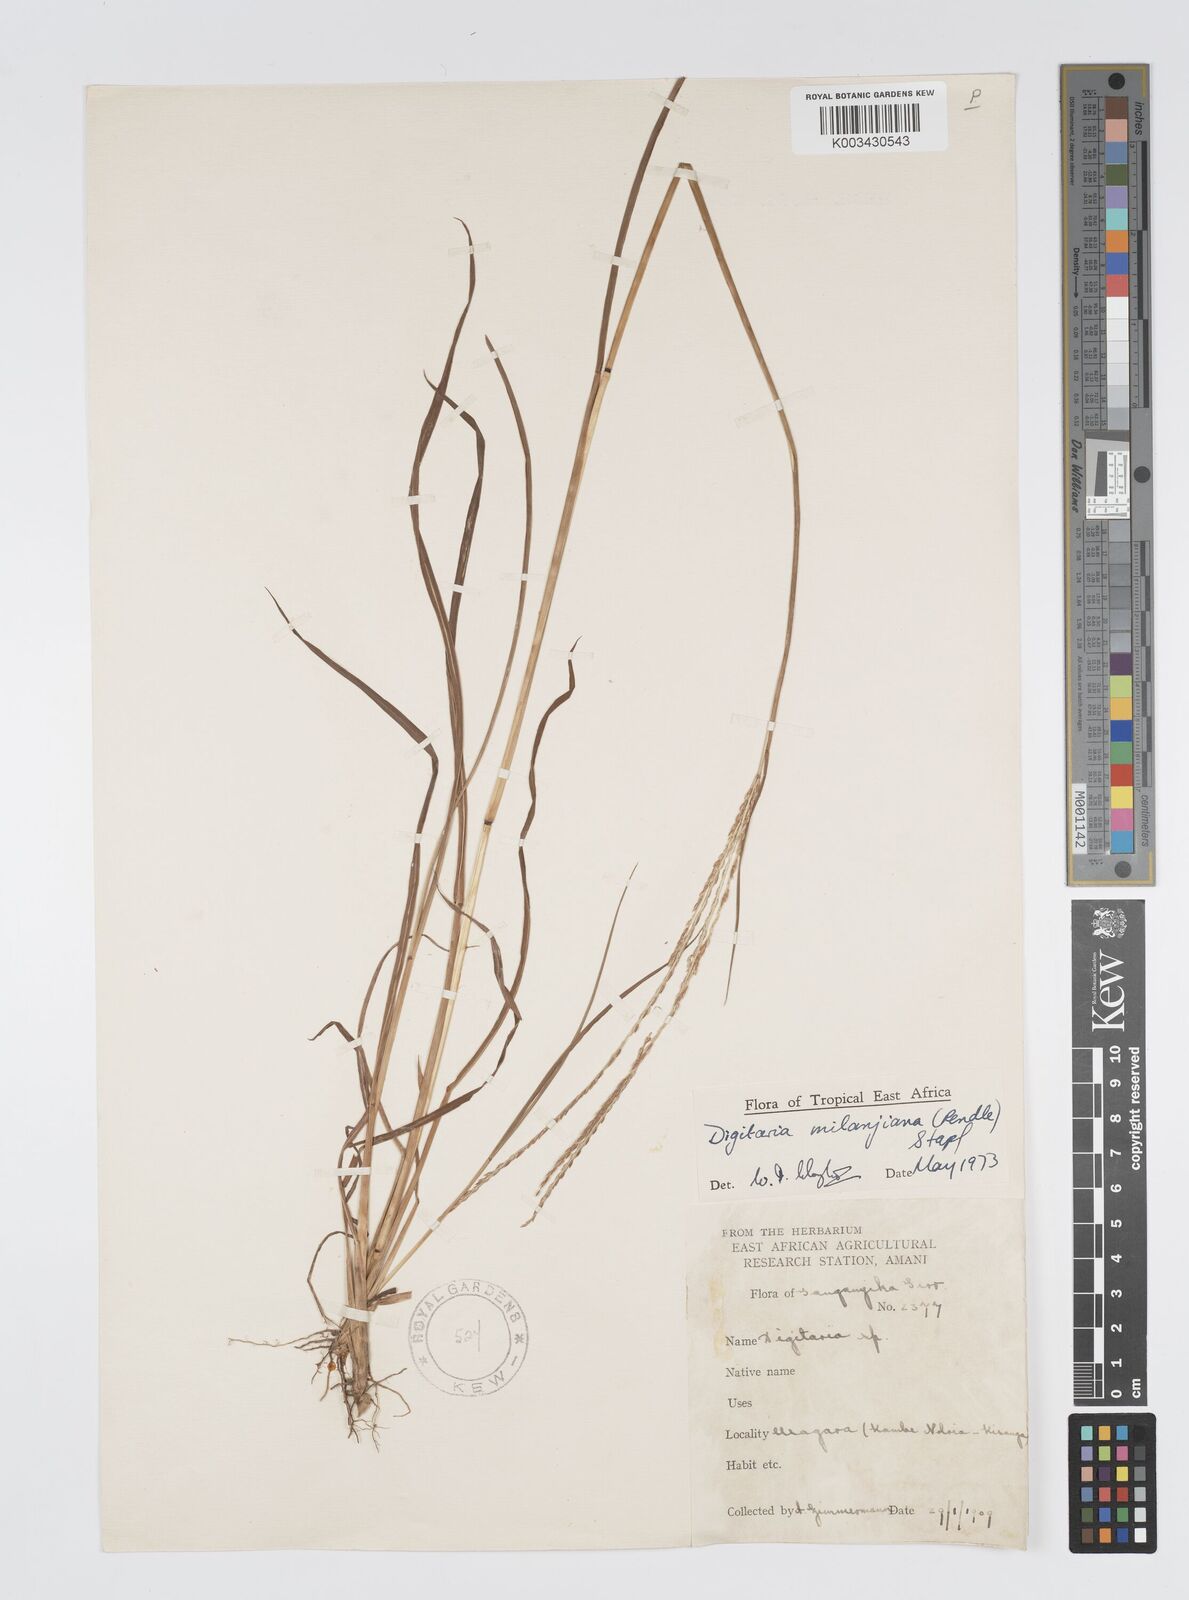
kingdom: Plantae
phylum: Tracheophyta
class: Liliopsida
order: Poales
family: Poaceae
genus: Digitaria
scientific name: Digitaria milanjiana
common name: Madagascar crabgrass
